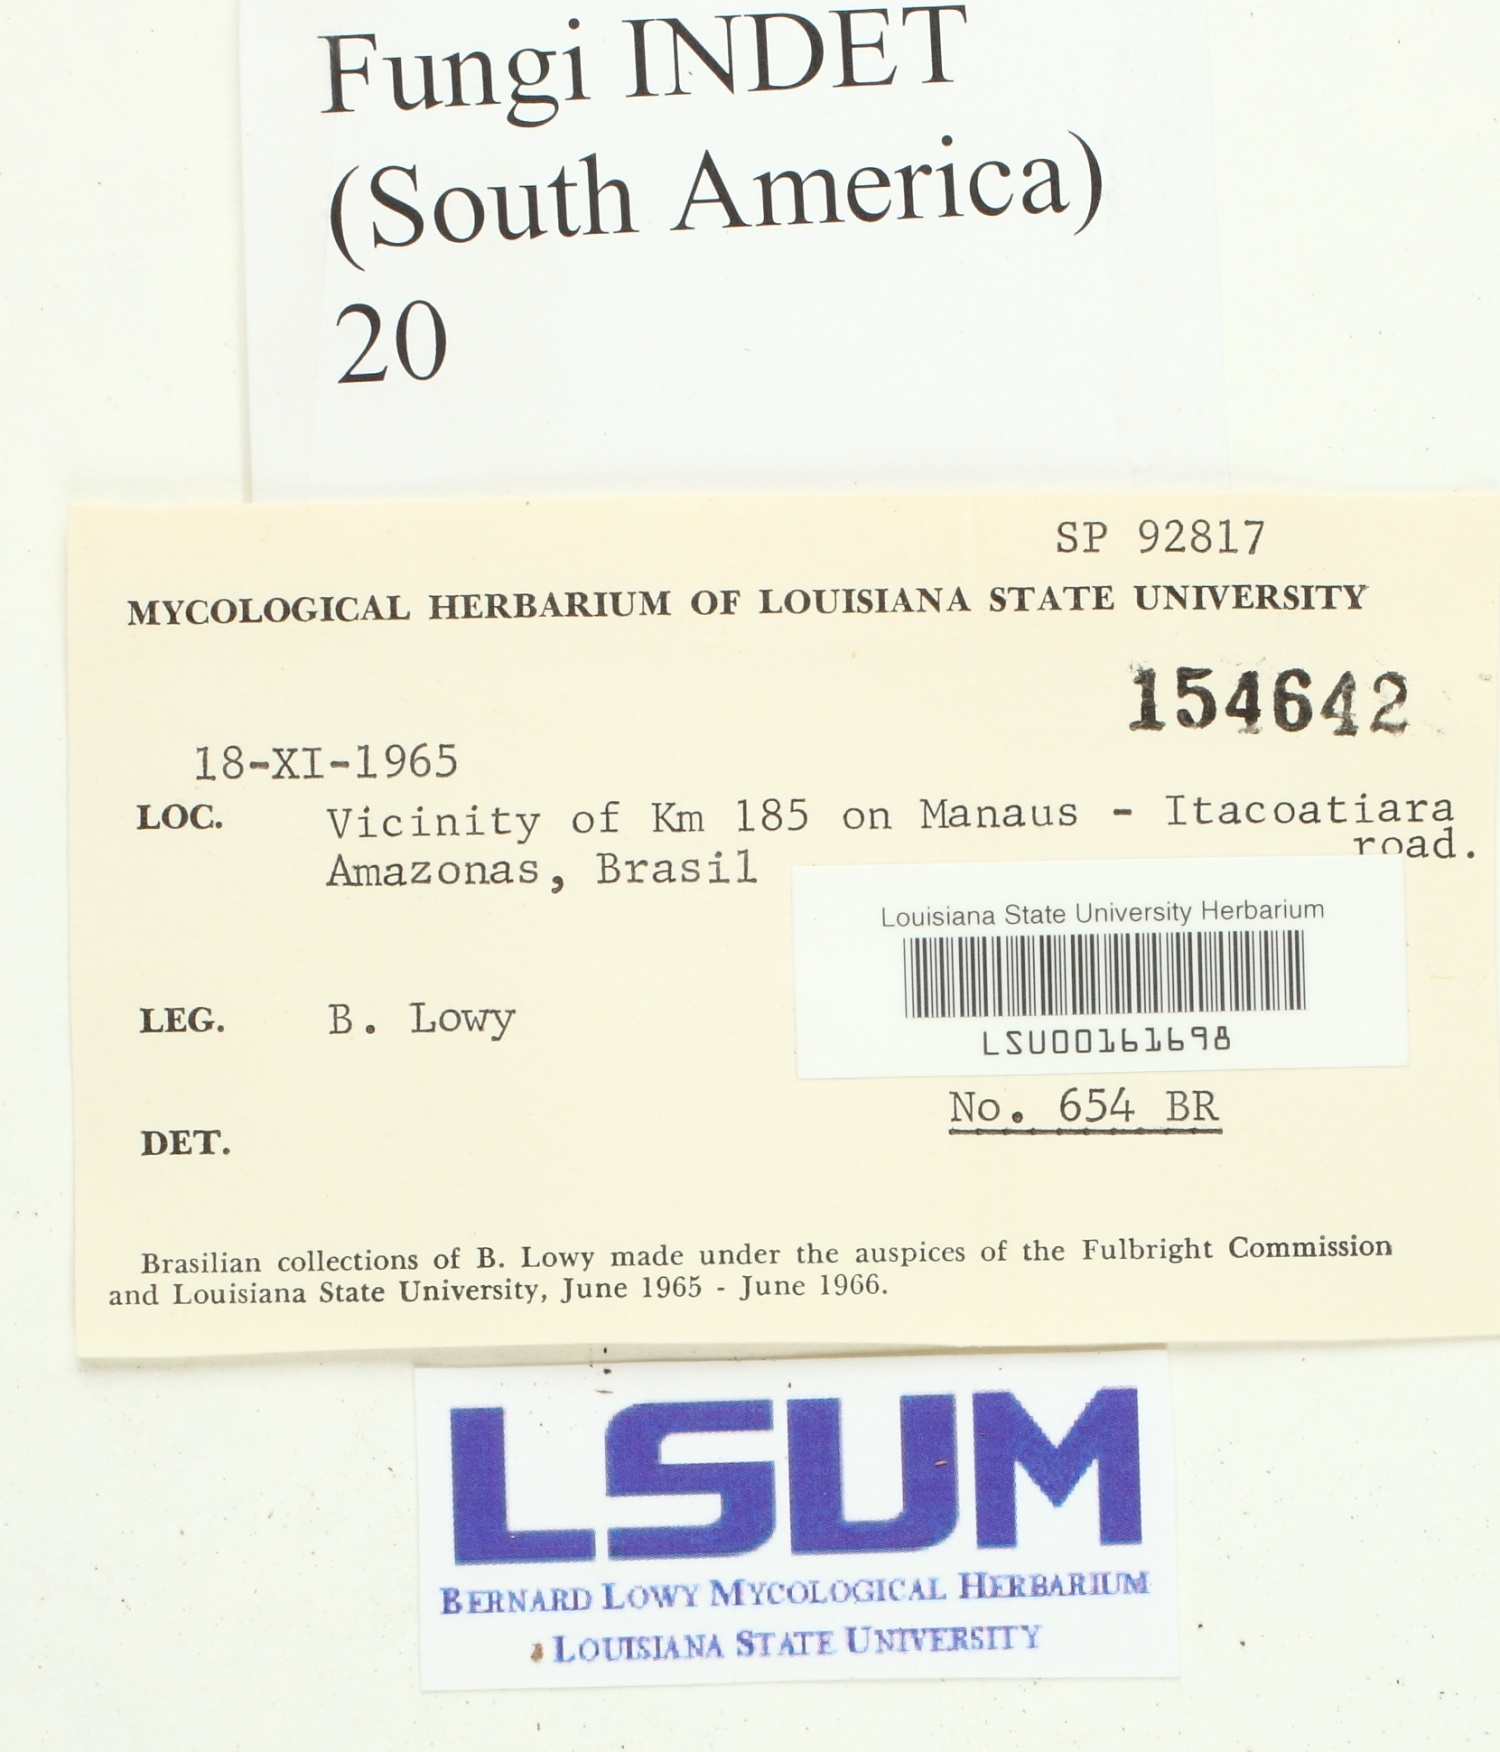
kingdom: Fungi
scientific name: Fungi
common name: Fungi
